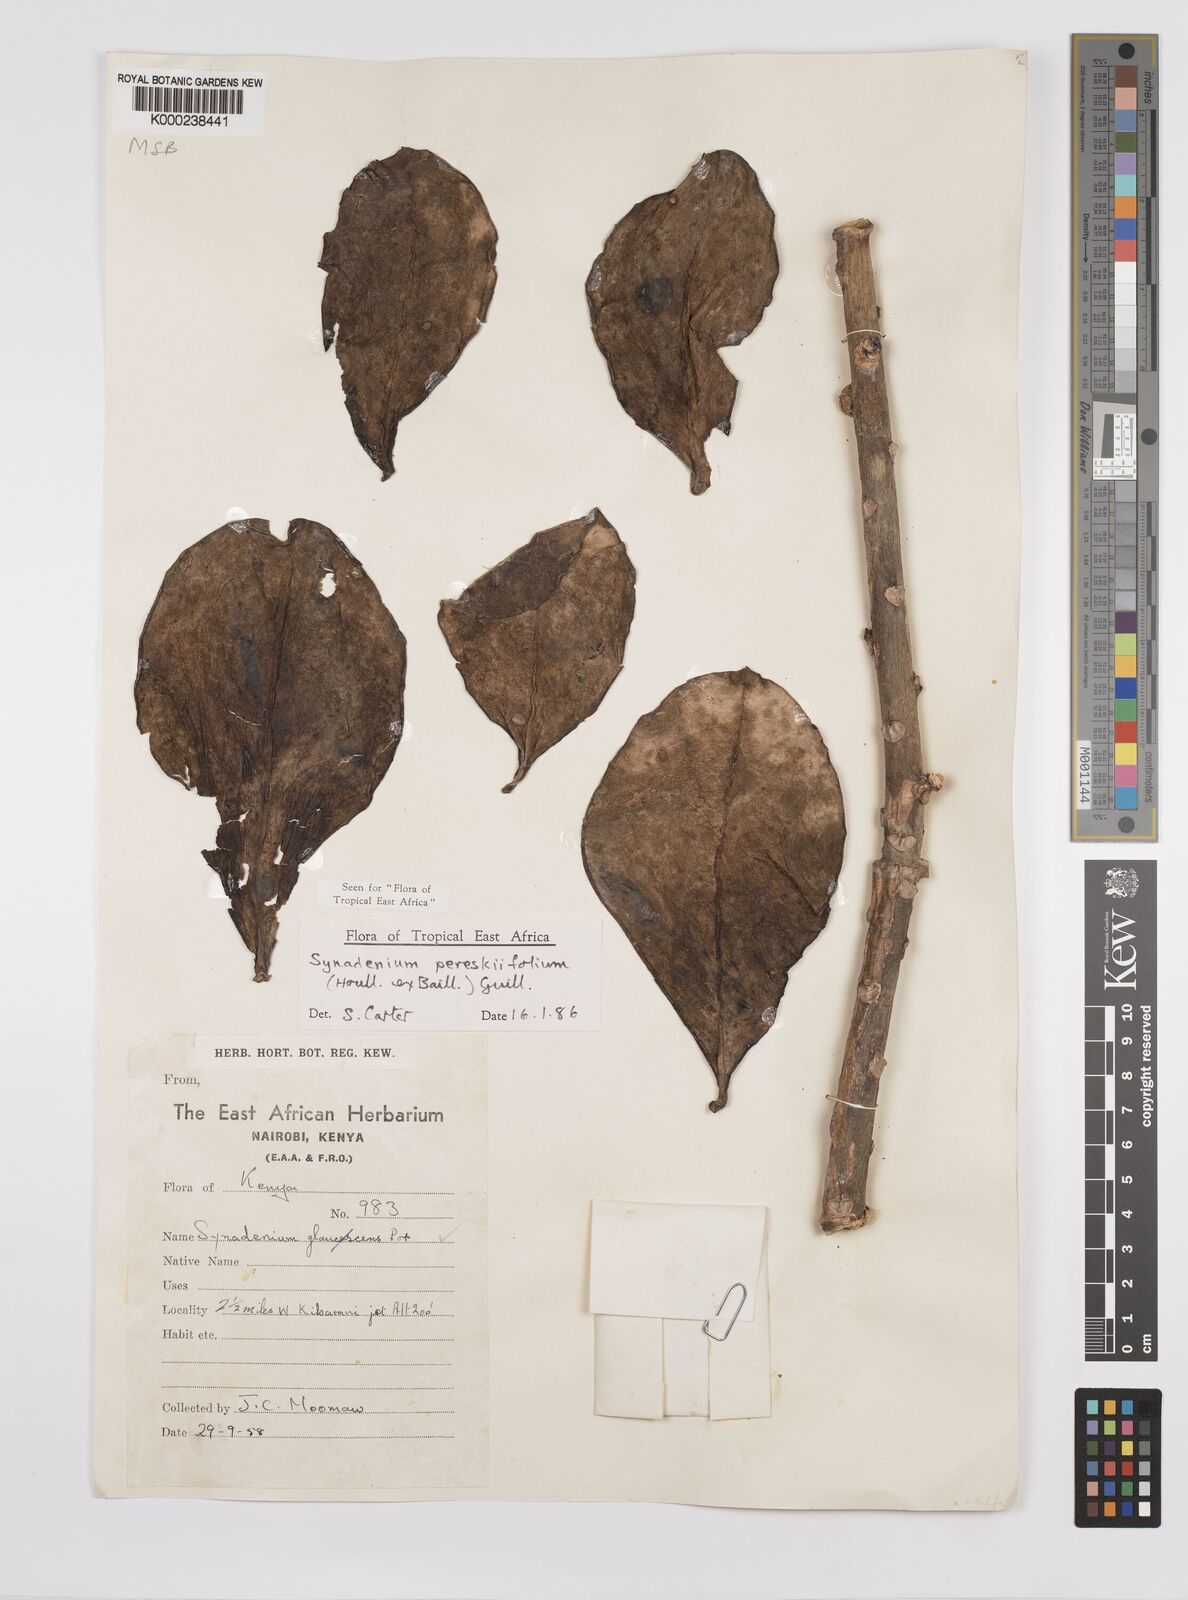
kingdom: Plantae
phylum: Tracheophyta
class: Magnoliopsida
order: Malpighiales
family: Euphorbiaceae
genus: Euphorbia
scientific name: Euphorbia pereskiifolia
